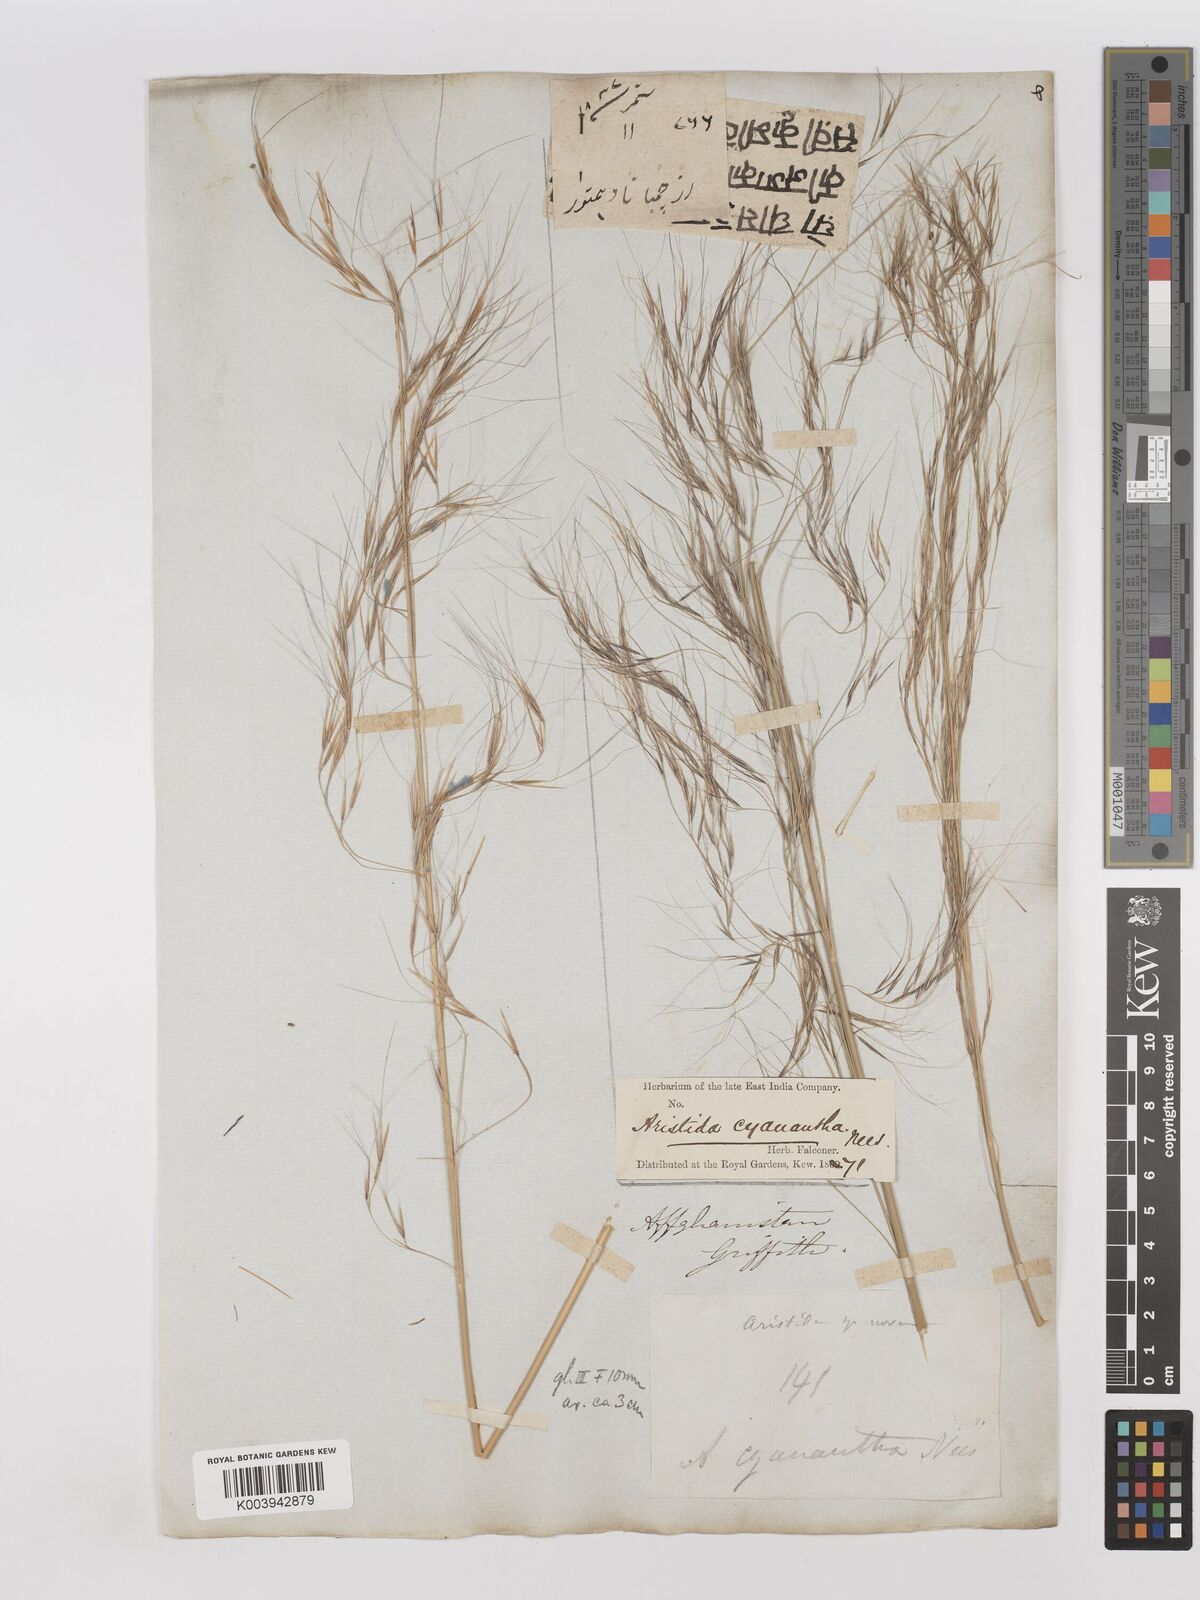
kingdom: Plantae
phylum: Tracheophyta
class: Liliopsida
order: Poales
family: Poaceae
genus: Aristida
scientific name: Aristida cyanantha
